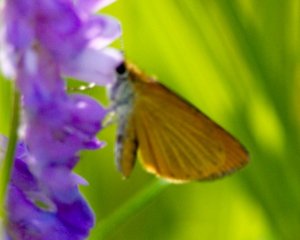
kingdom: Animalia
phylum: Arthropoda
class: Insecta
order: Lepidoptera
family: Hesperiidae
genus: Ancyloxypha
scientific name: Ancyloxypha numitor
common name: Least Skipper
